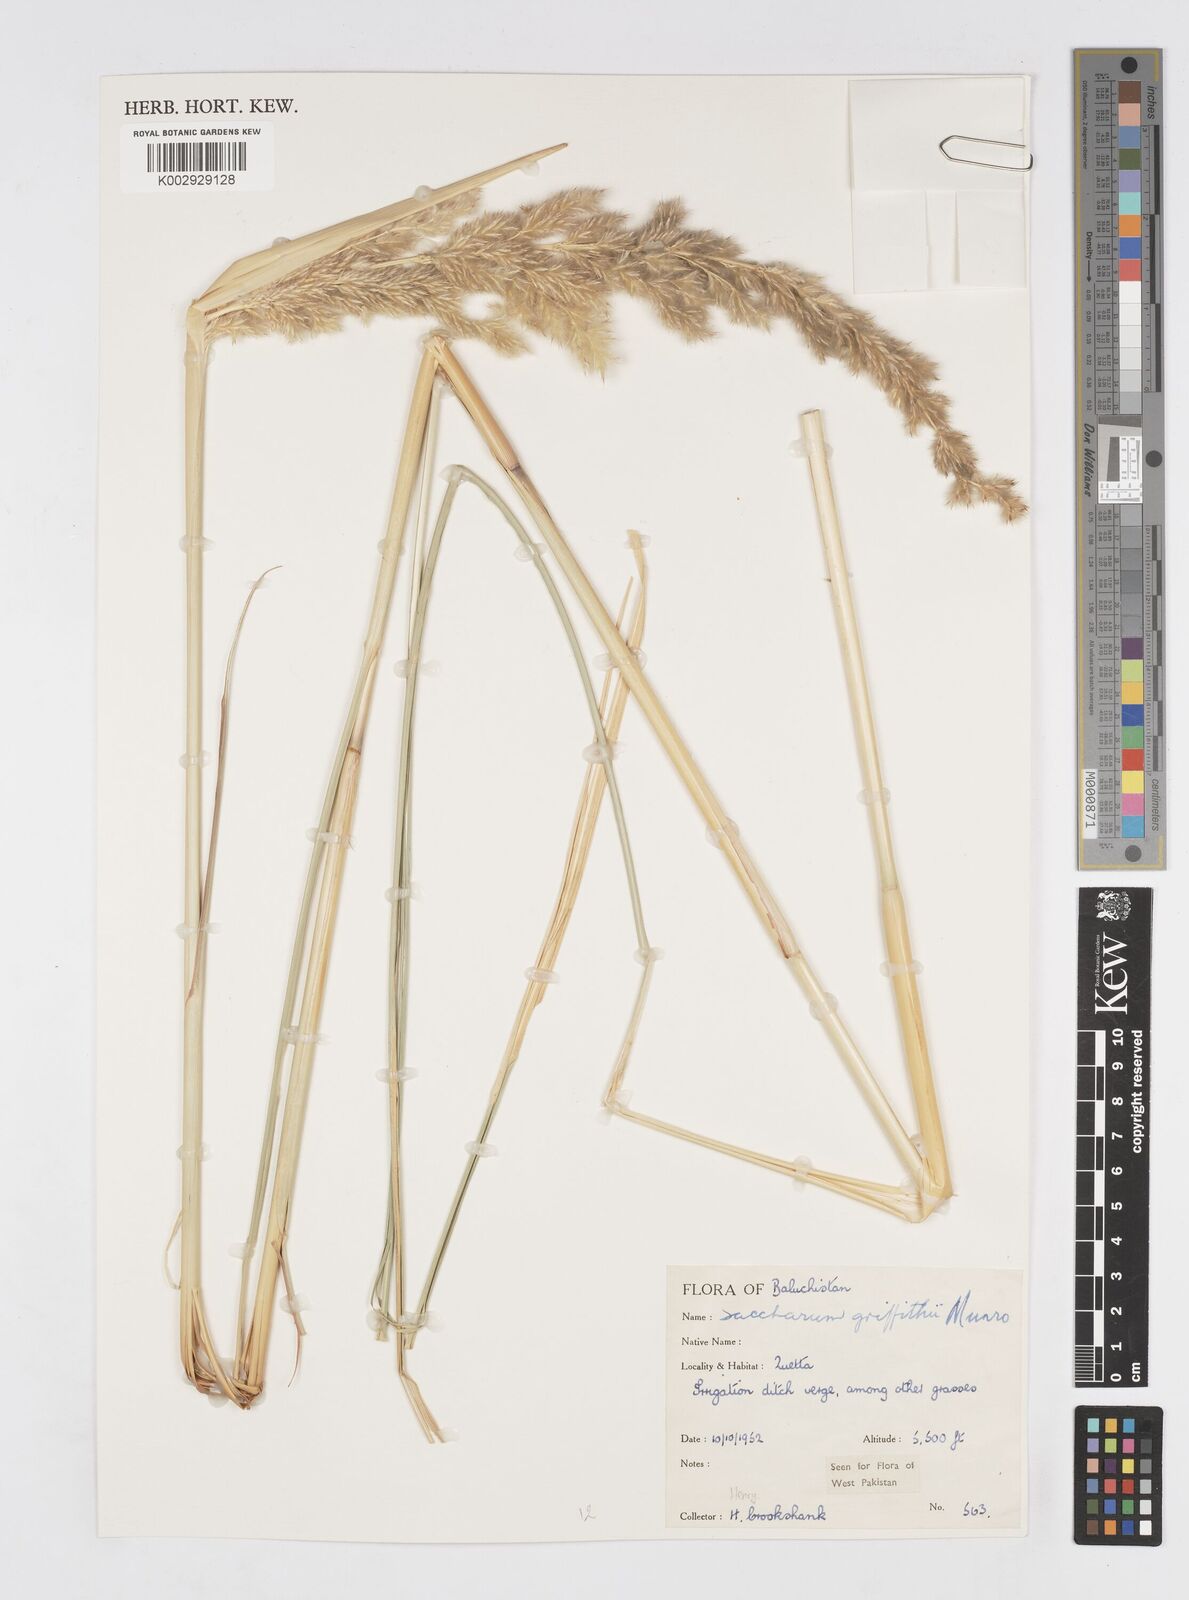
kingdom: Plantae
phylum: Tracheophyta
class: Liliopsida
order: Poales
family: Poaceae
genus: Saccharum
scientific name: Saccharum griffithii
